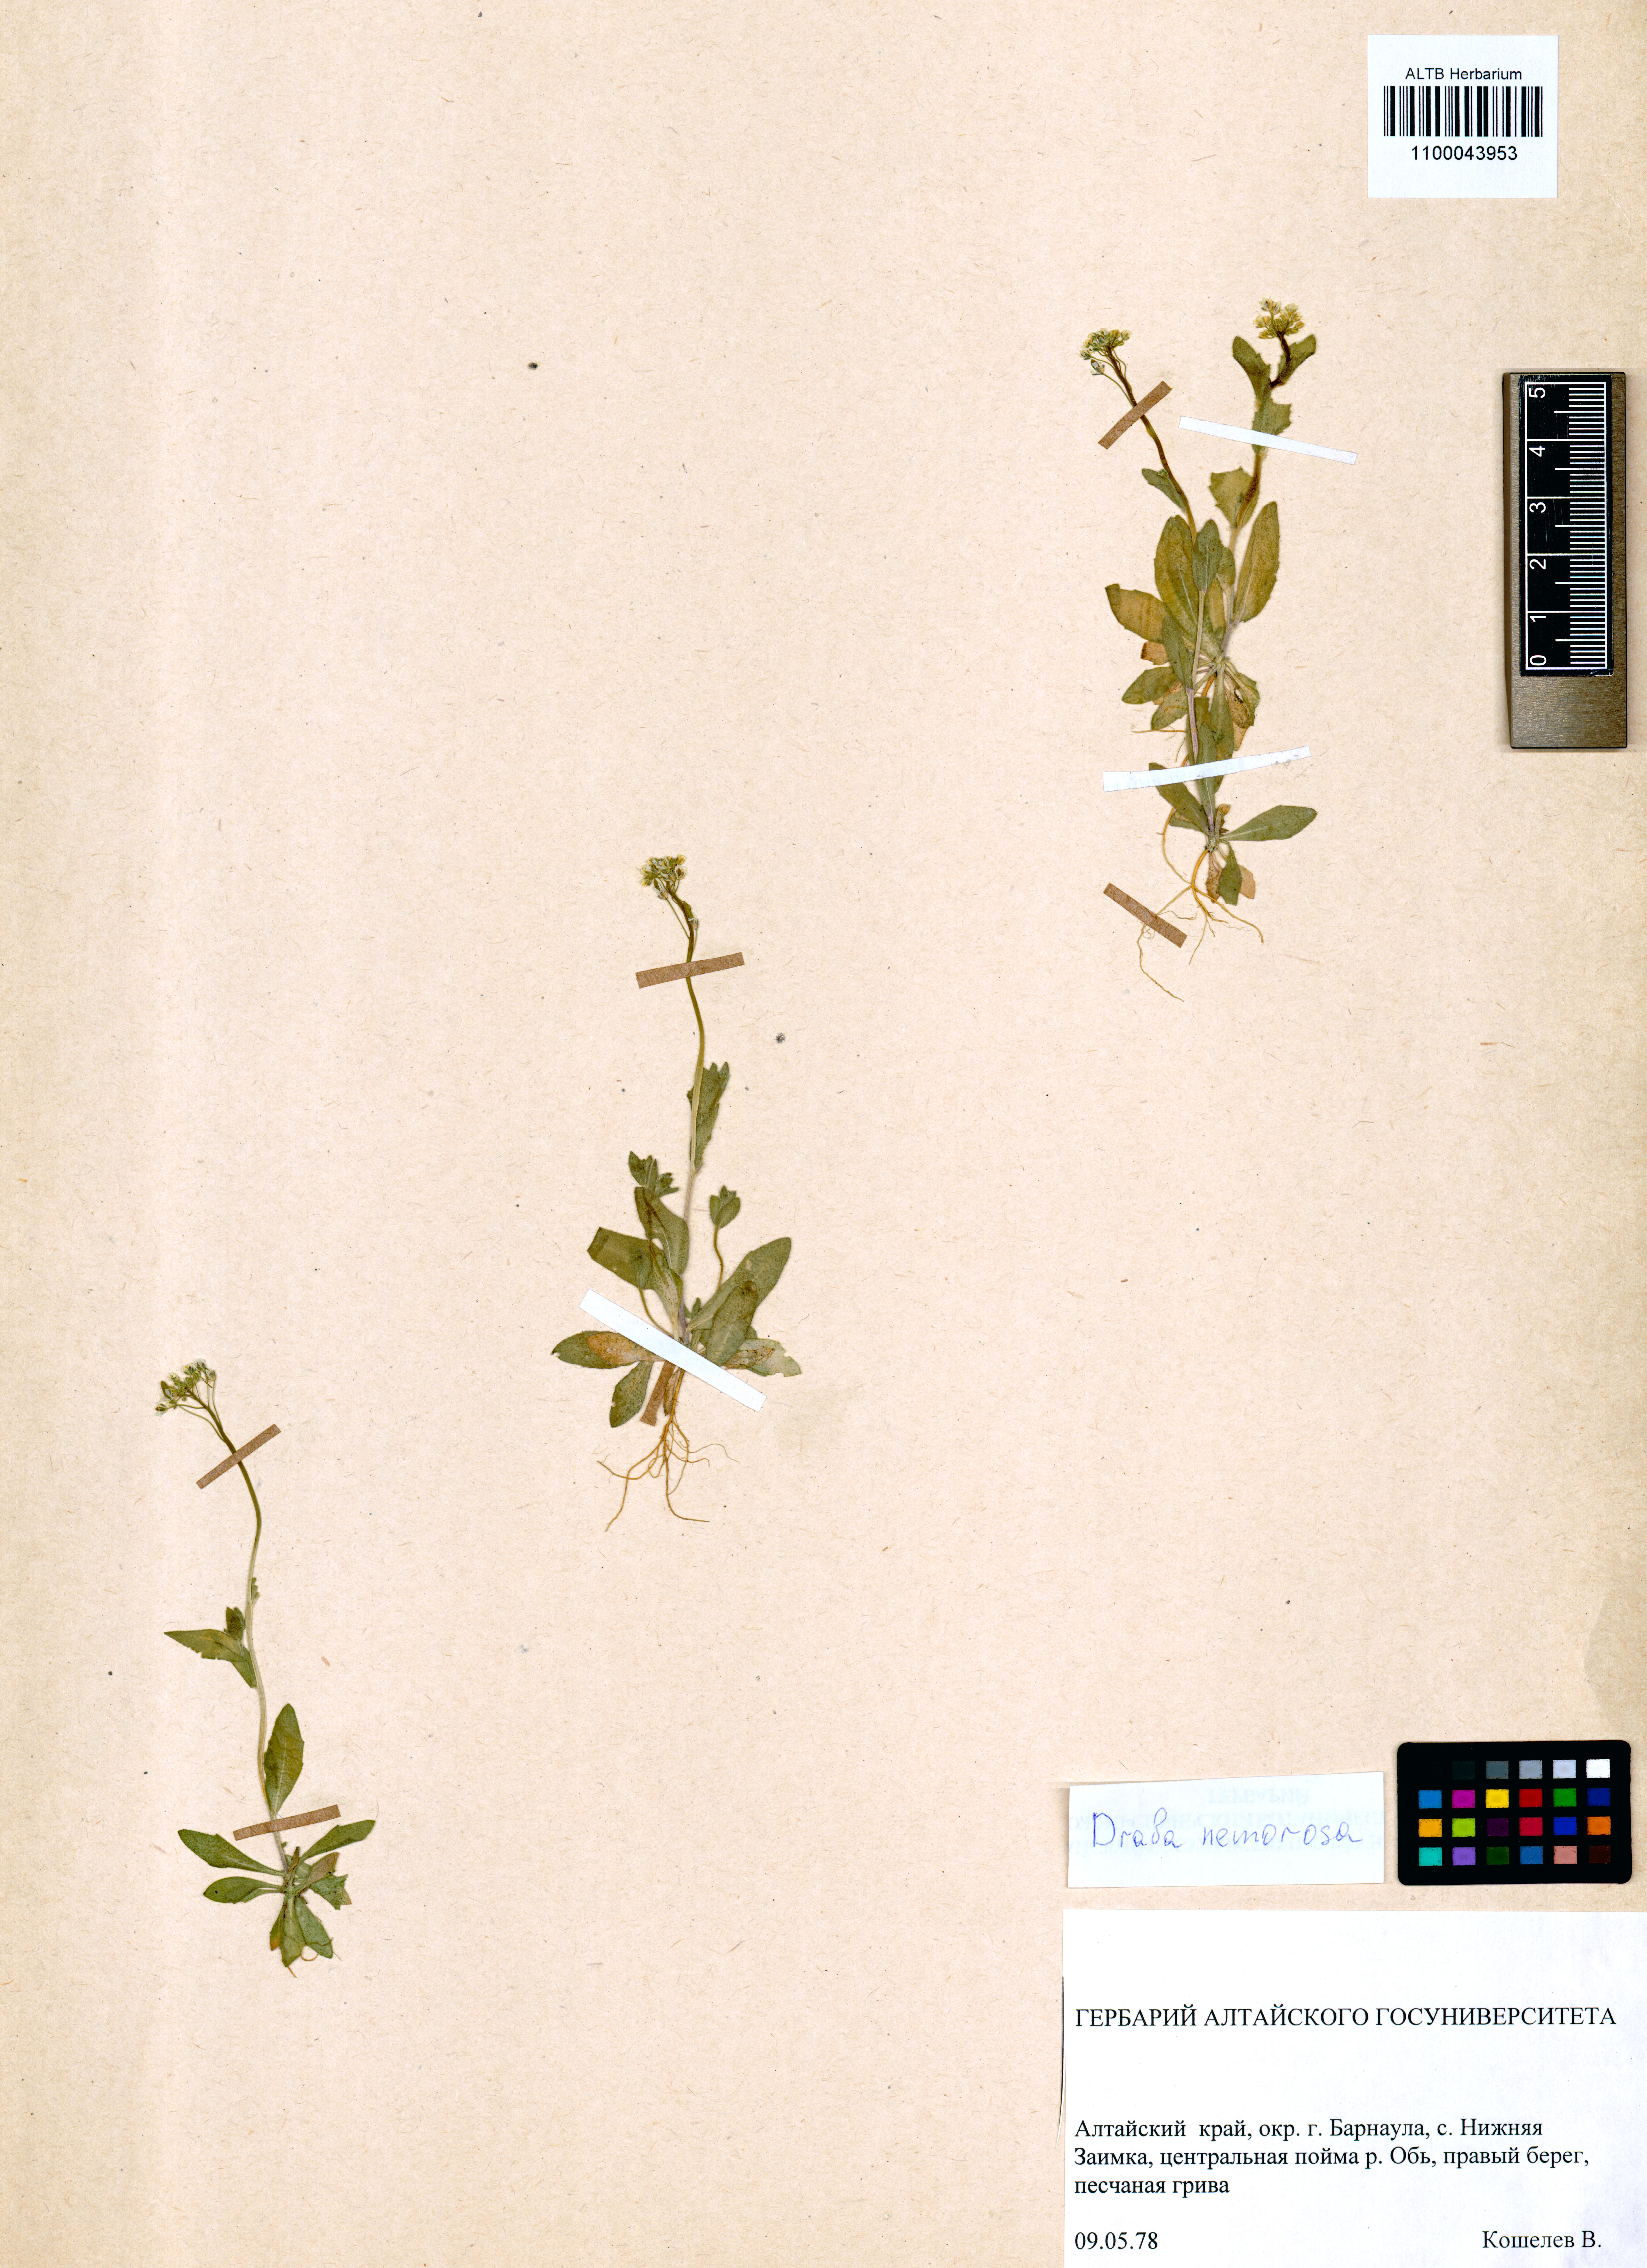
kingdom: Plantae
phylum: Tracheophyta
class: Magnoliopsida
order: Brassicales
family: Brassicaceae
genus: Draba
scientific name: Draba nemorosa
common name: Wood whitlow-grass
